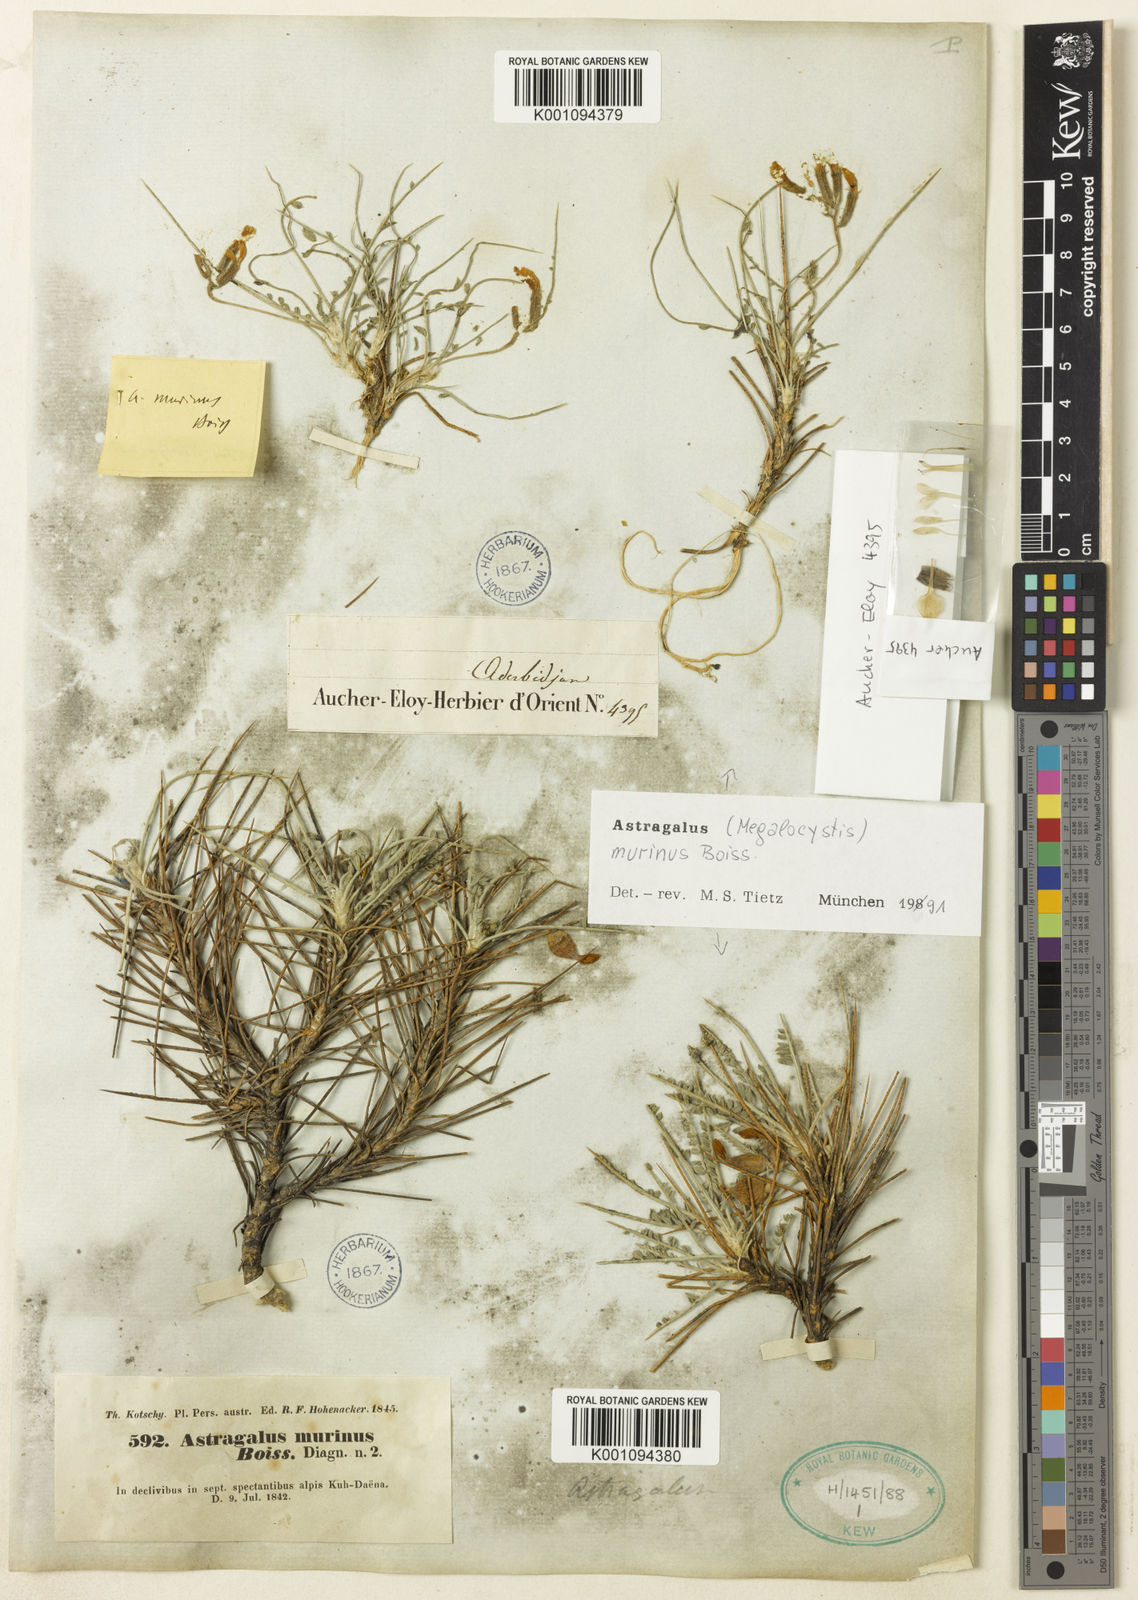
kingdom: Plantae
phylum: Tracheophyta
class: Magnoliopsida
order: Fabales
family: Fabaceae
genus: Astragalus
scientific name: Astragalus murinus
